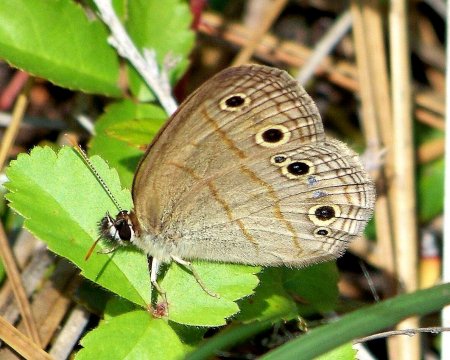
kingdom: Animalia
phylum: Arthropoda
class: Insecta
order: Lepidoptera
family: Nymphalidae
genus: Euptychia
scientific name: Euptychia cymela
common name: Little Wood Satyr
